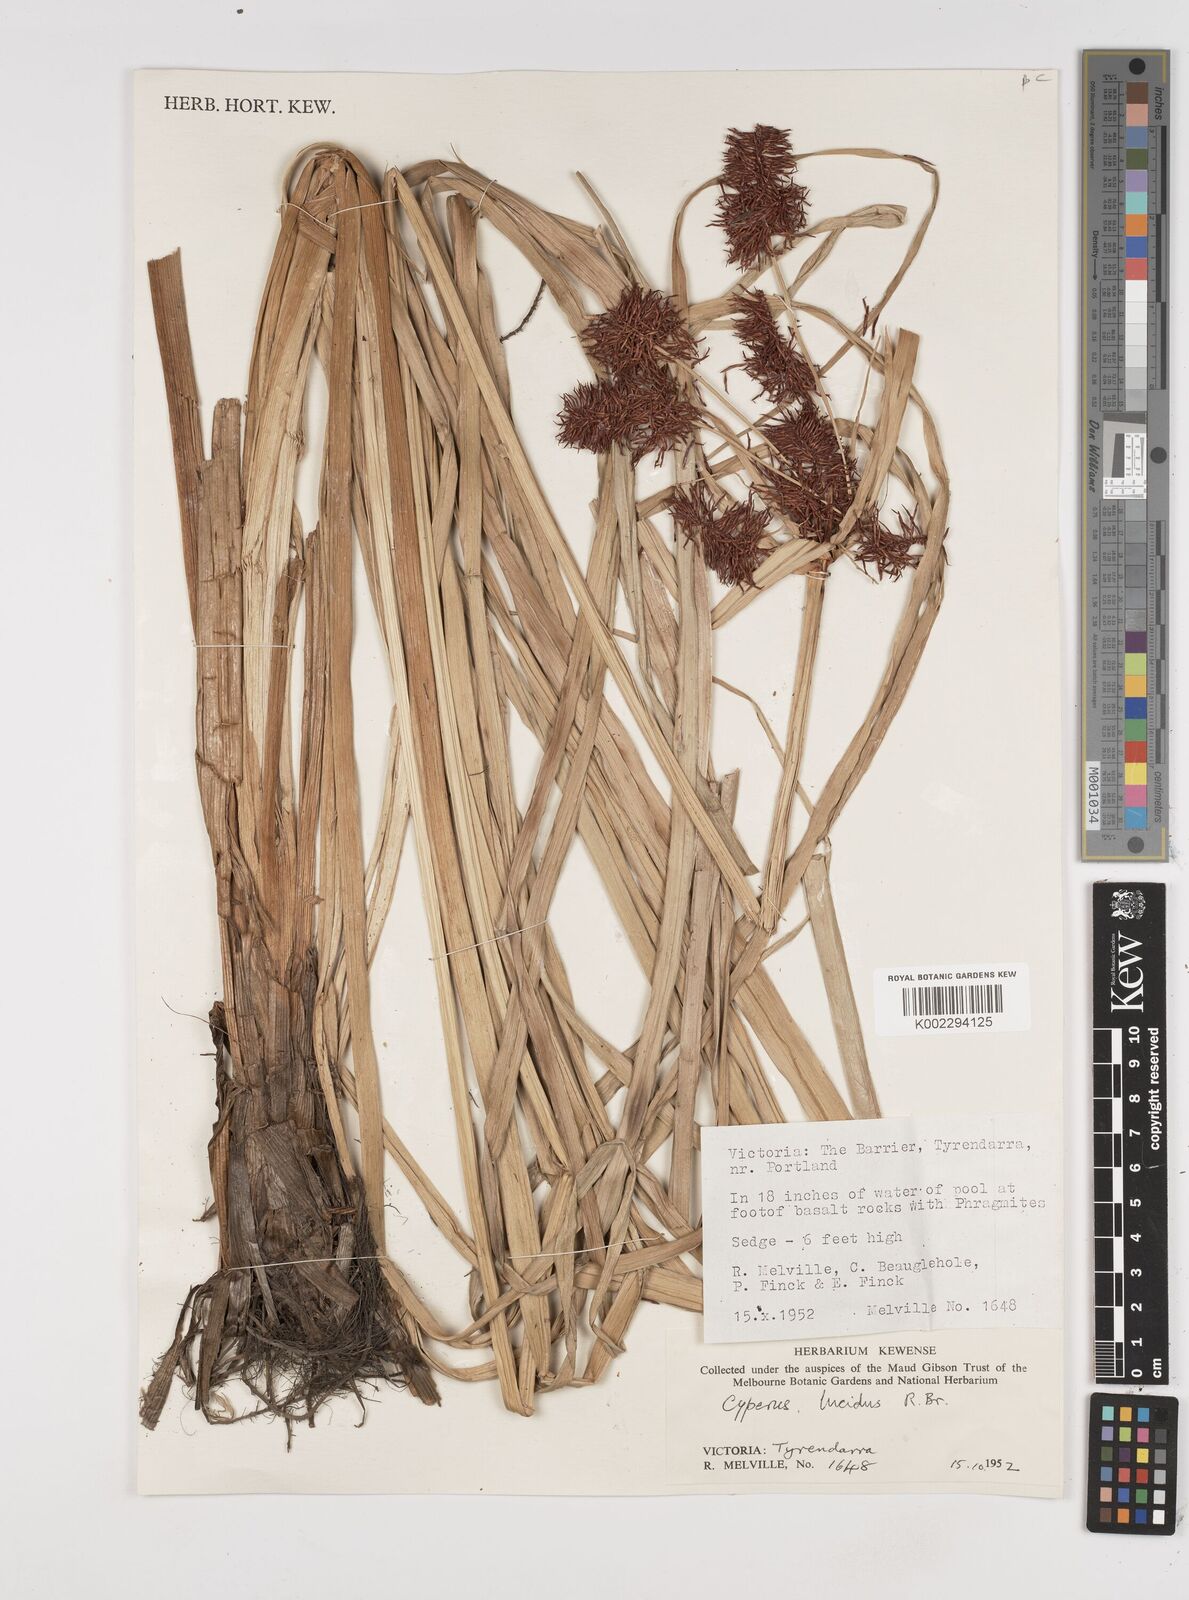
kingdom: Plantae
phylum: Tracheophyta
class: Liliopsida
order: Poales
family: Cyperaceae
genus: Cyperus
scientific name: Cyperus lucidus
